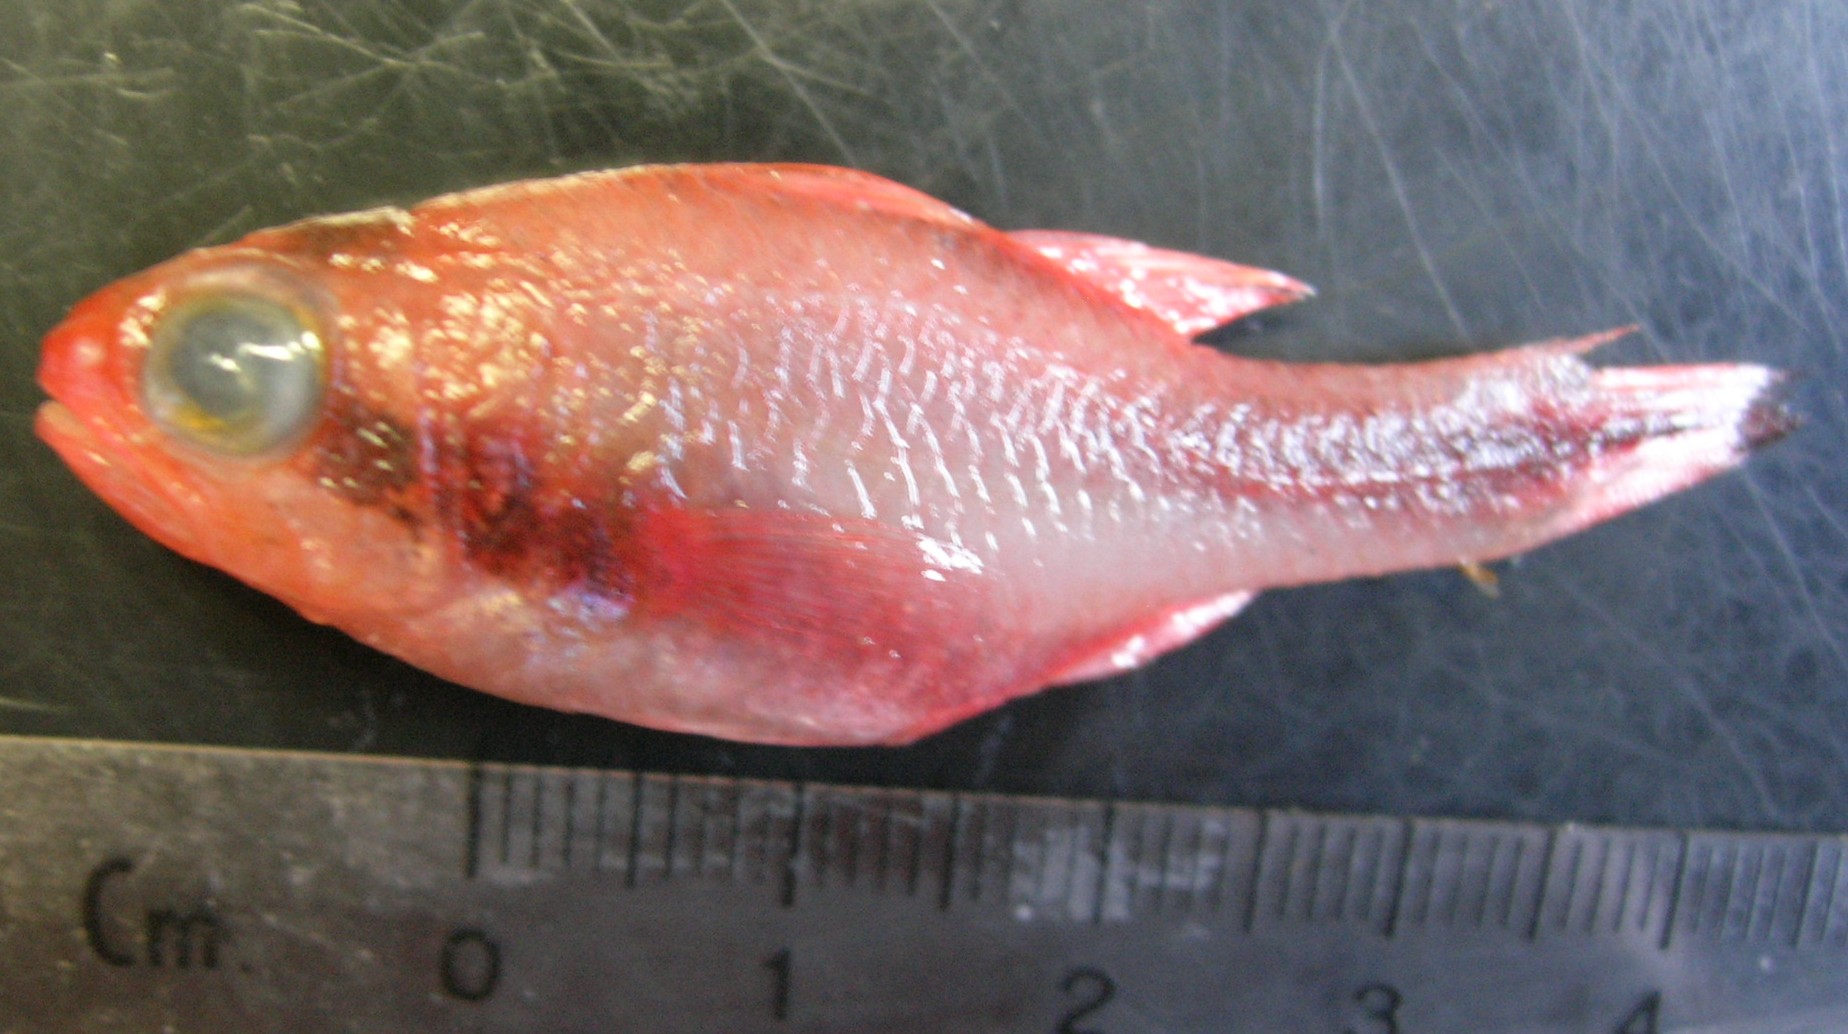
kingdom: Animalia
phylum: Chordata
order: Perciformes
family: Apogonidae
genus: Apogon
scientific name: Apogon semiornatus
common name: Threeband cardinalfish
